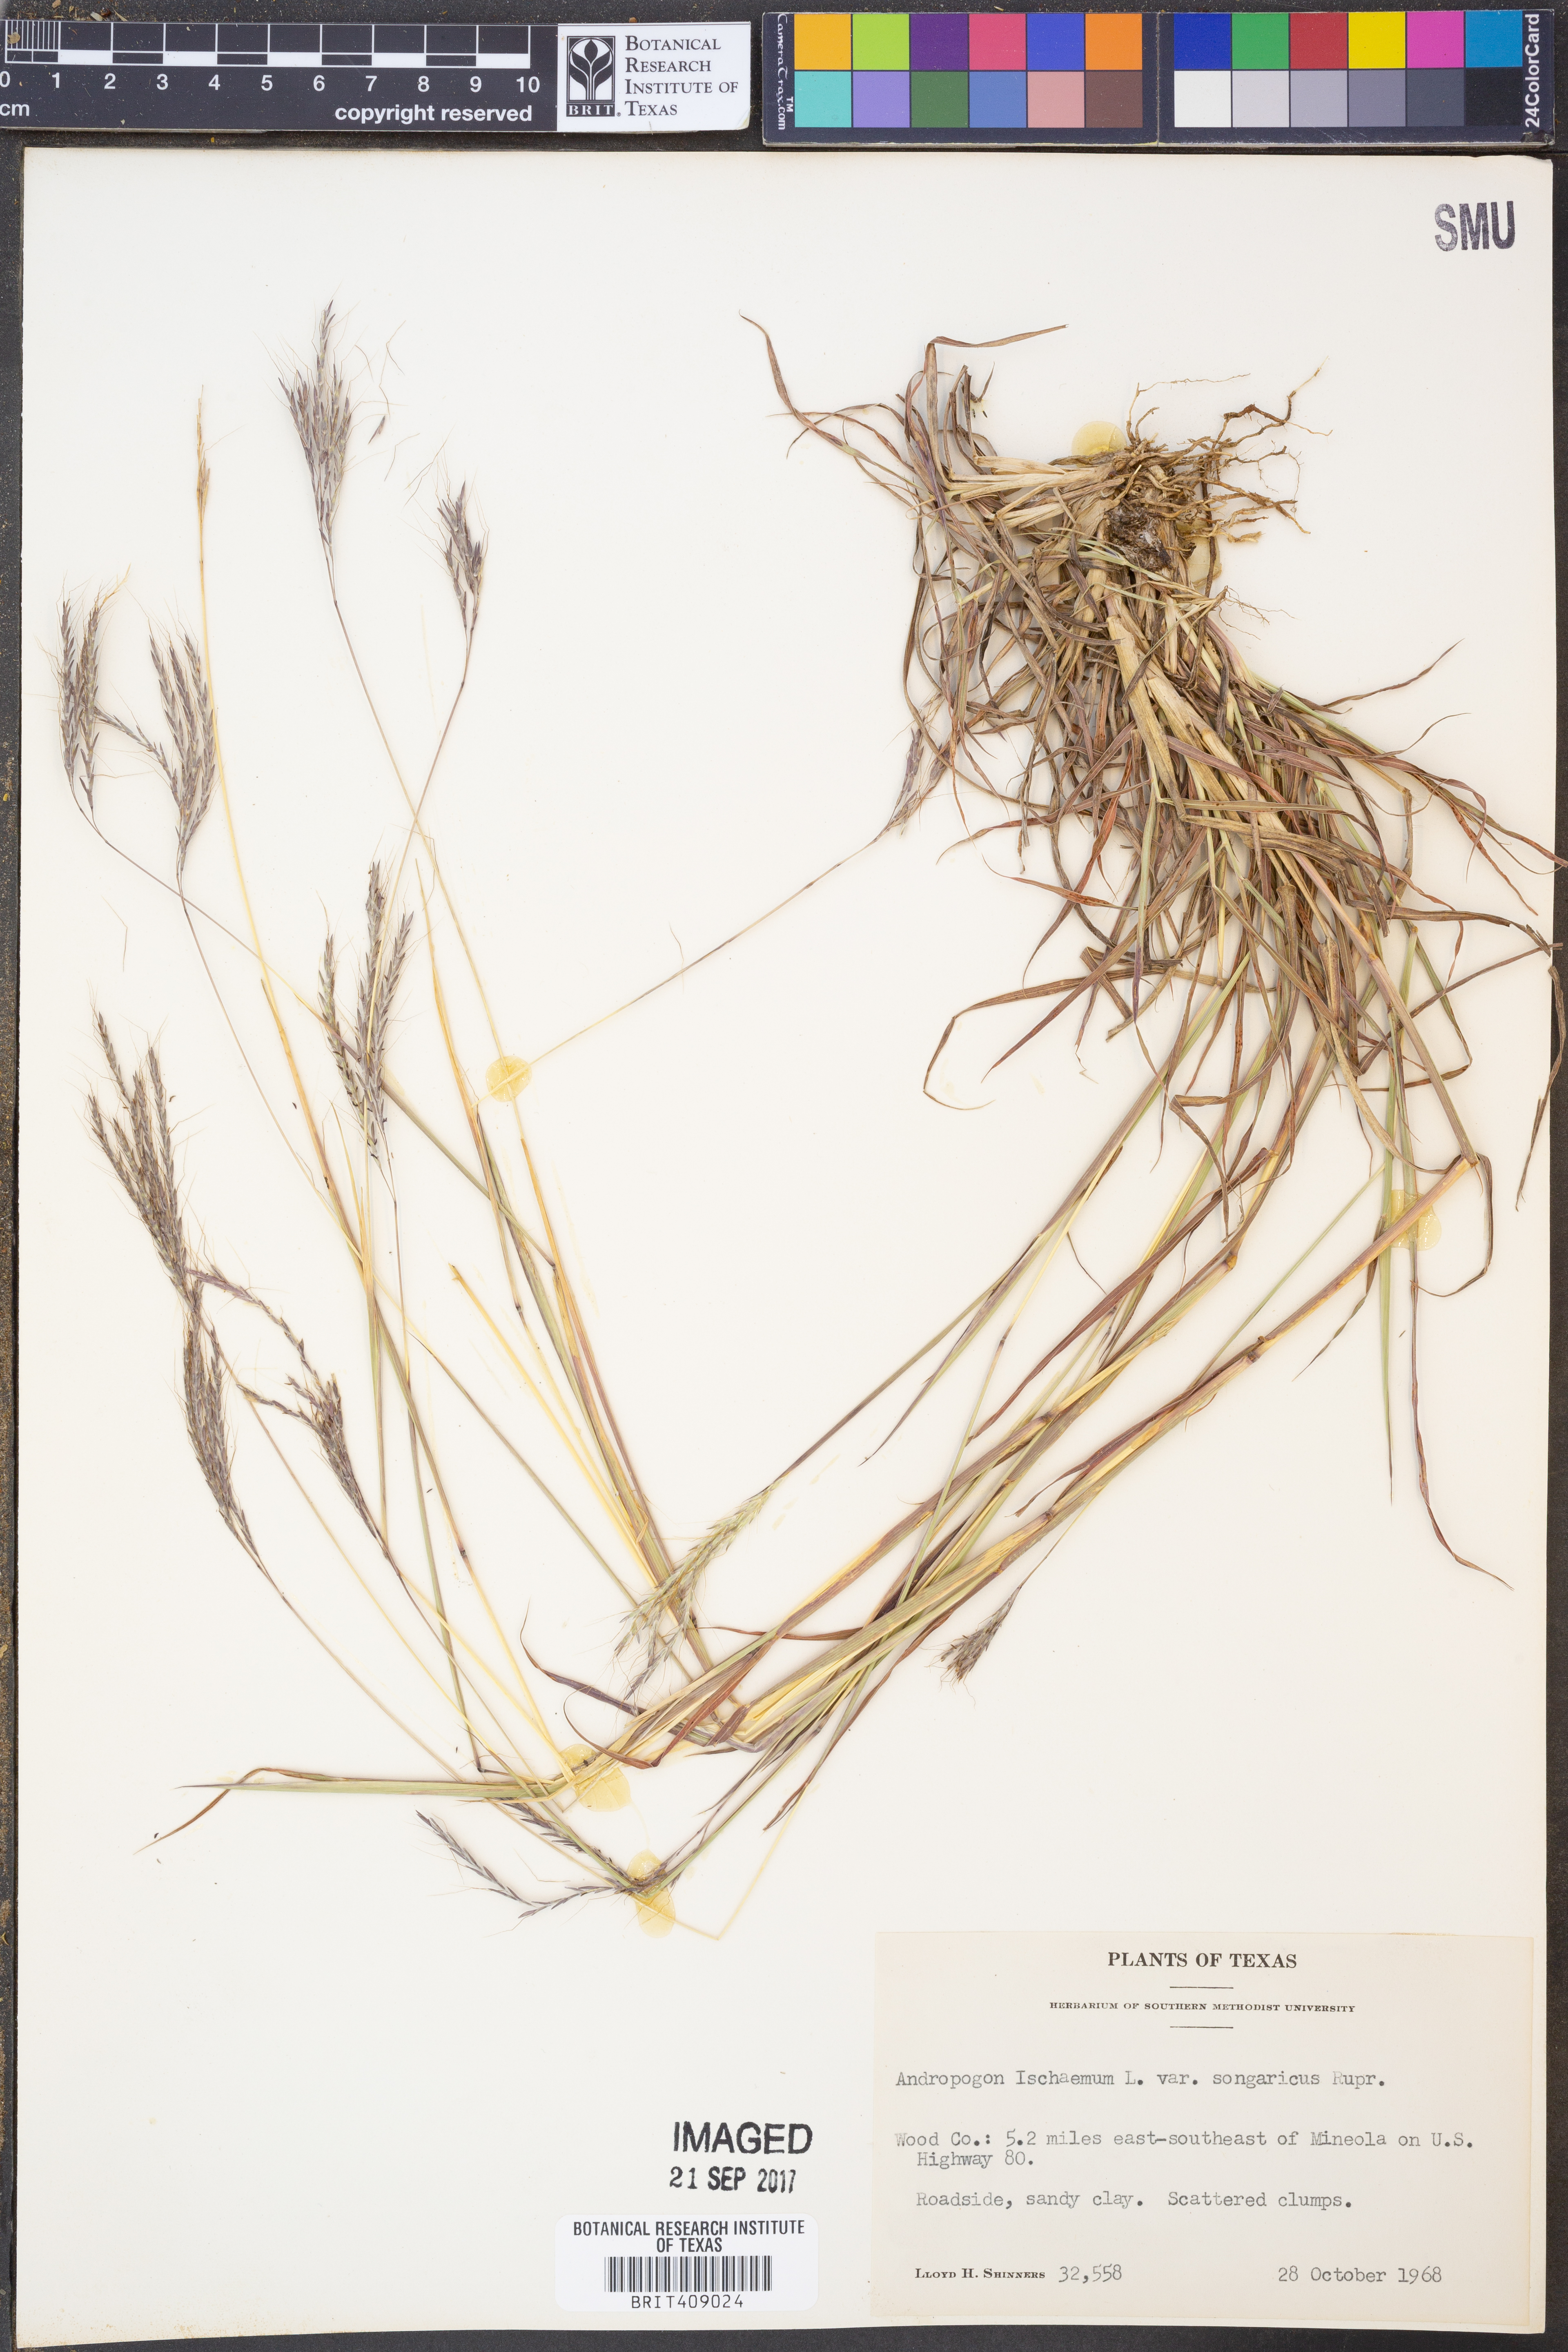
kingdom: Plantae
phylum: Tracheophyta
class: Liliopsida
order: Poales
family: Poaceae
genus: Bothriochloa
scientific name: Bothriochloa ischaemum
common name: Yellow bluestem
